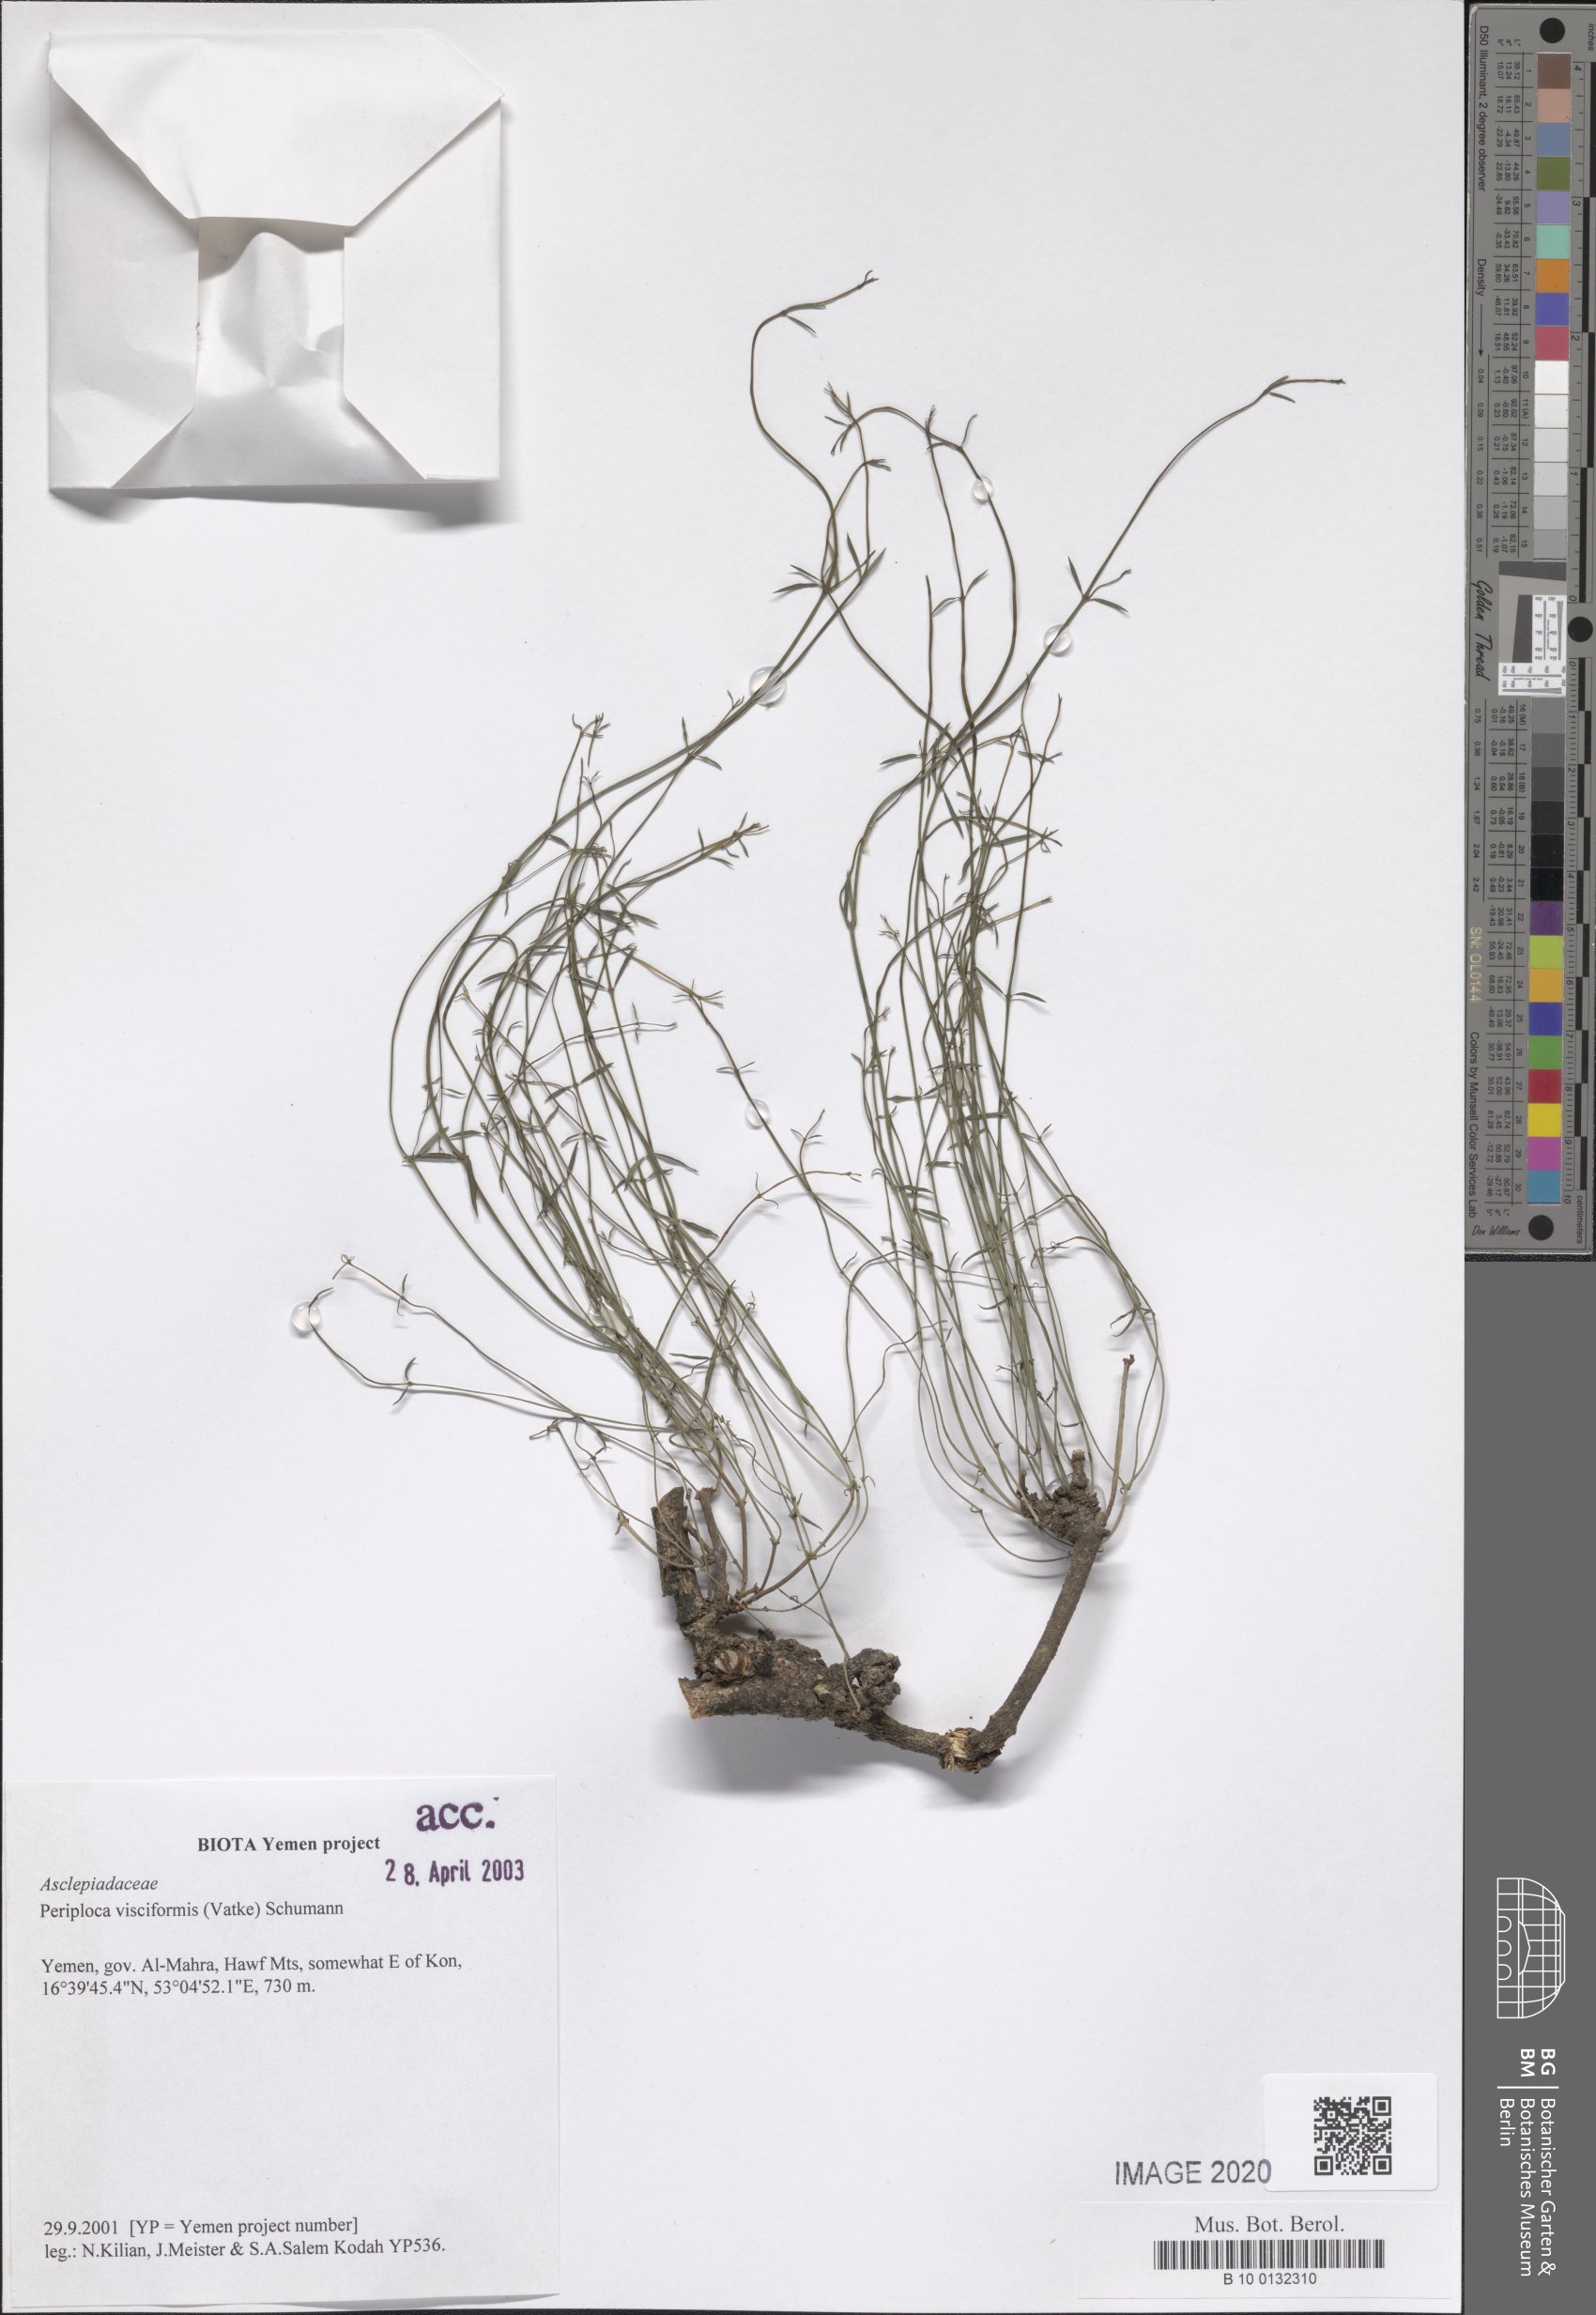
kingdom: Plantae
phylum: Tracheophyta
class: Magnoliopsida
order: Gentianales
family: Apocynaceae
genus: Periploca
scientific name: Periploca visciformis
